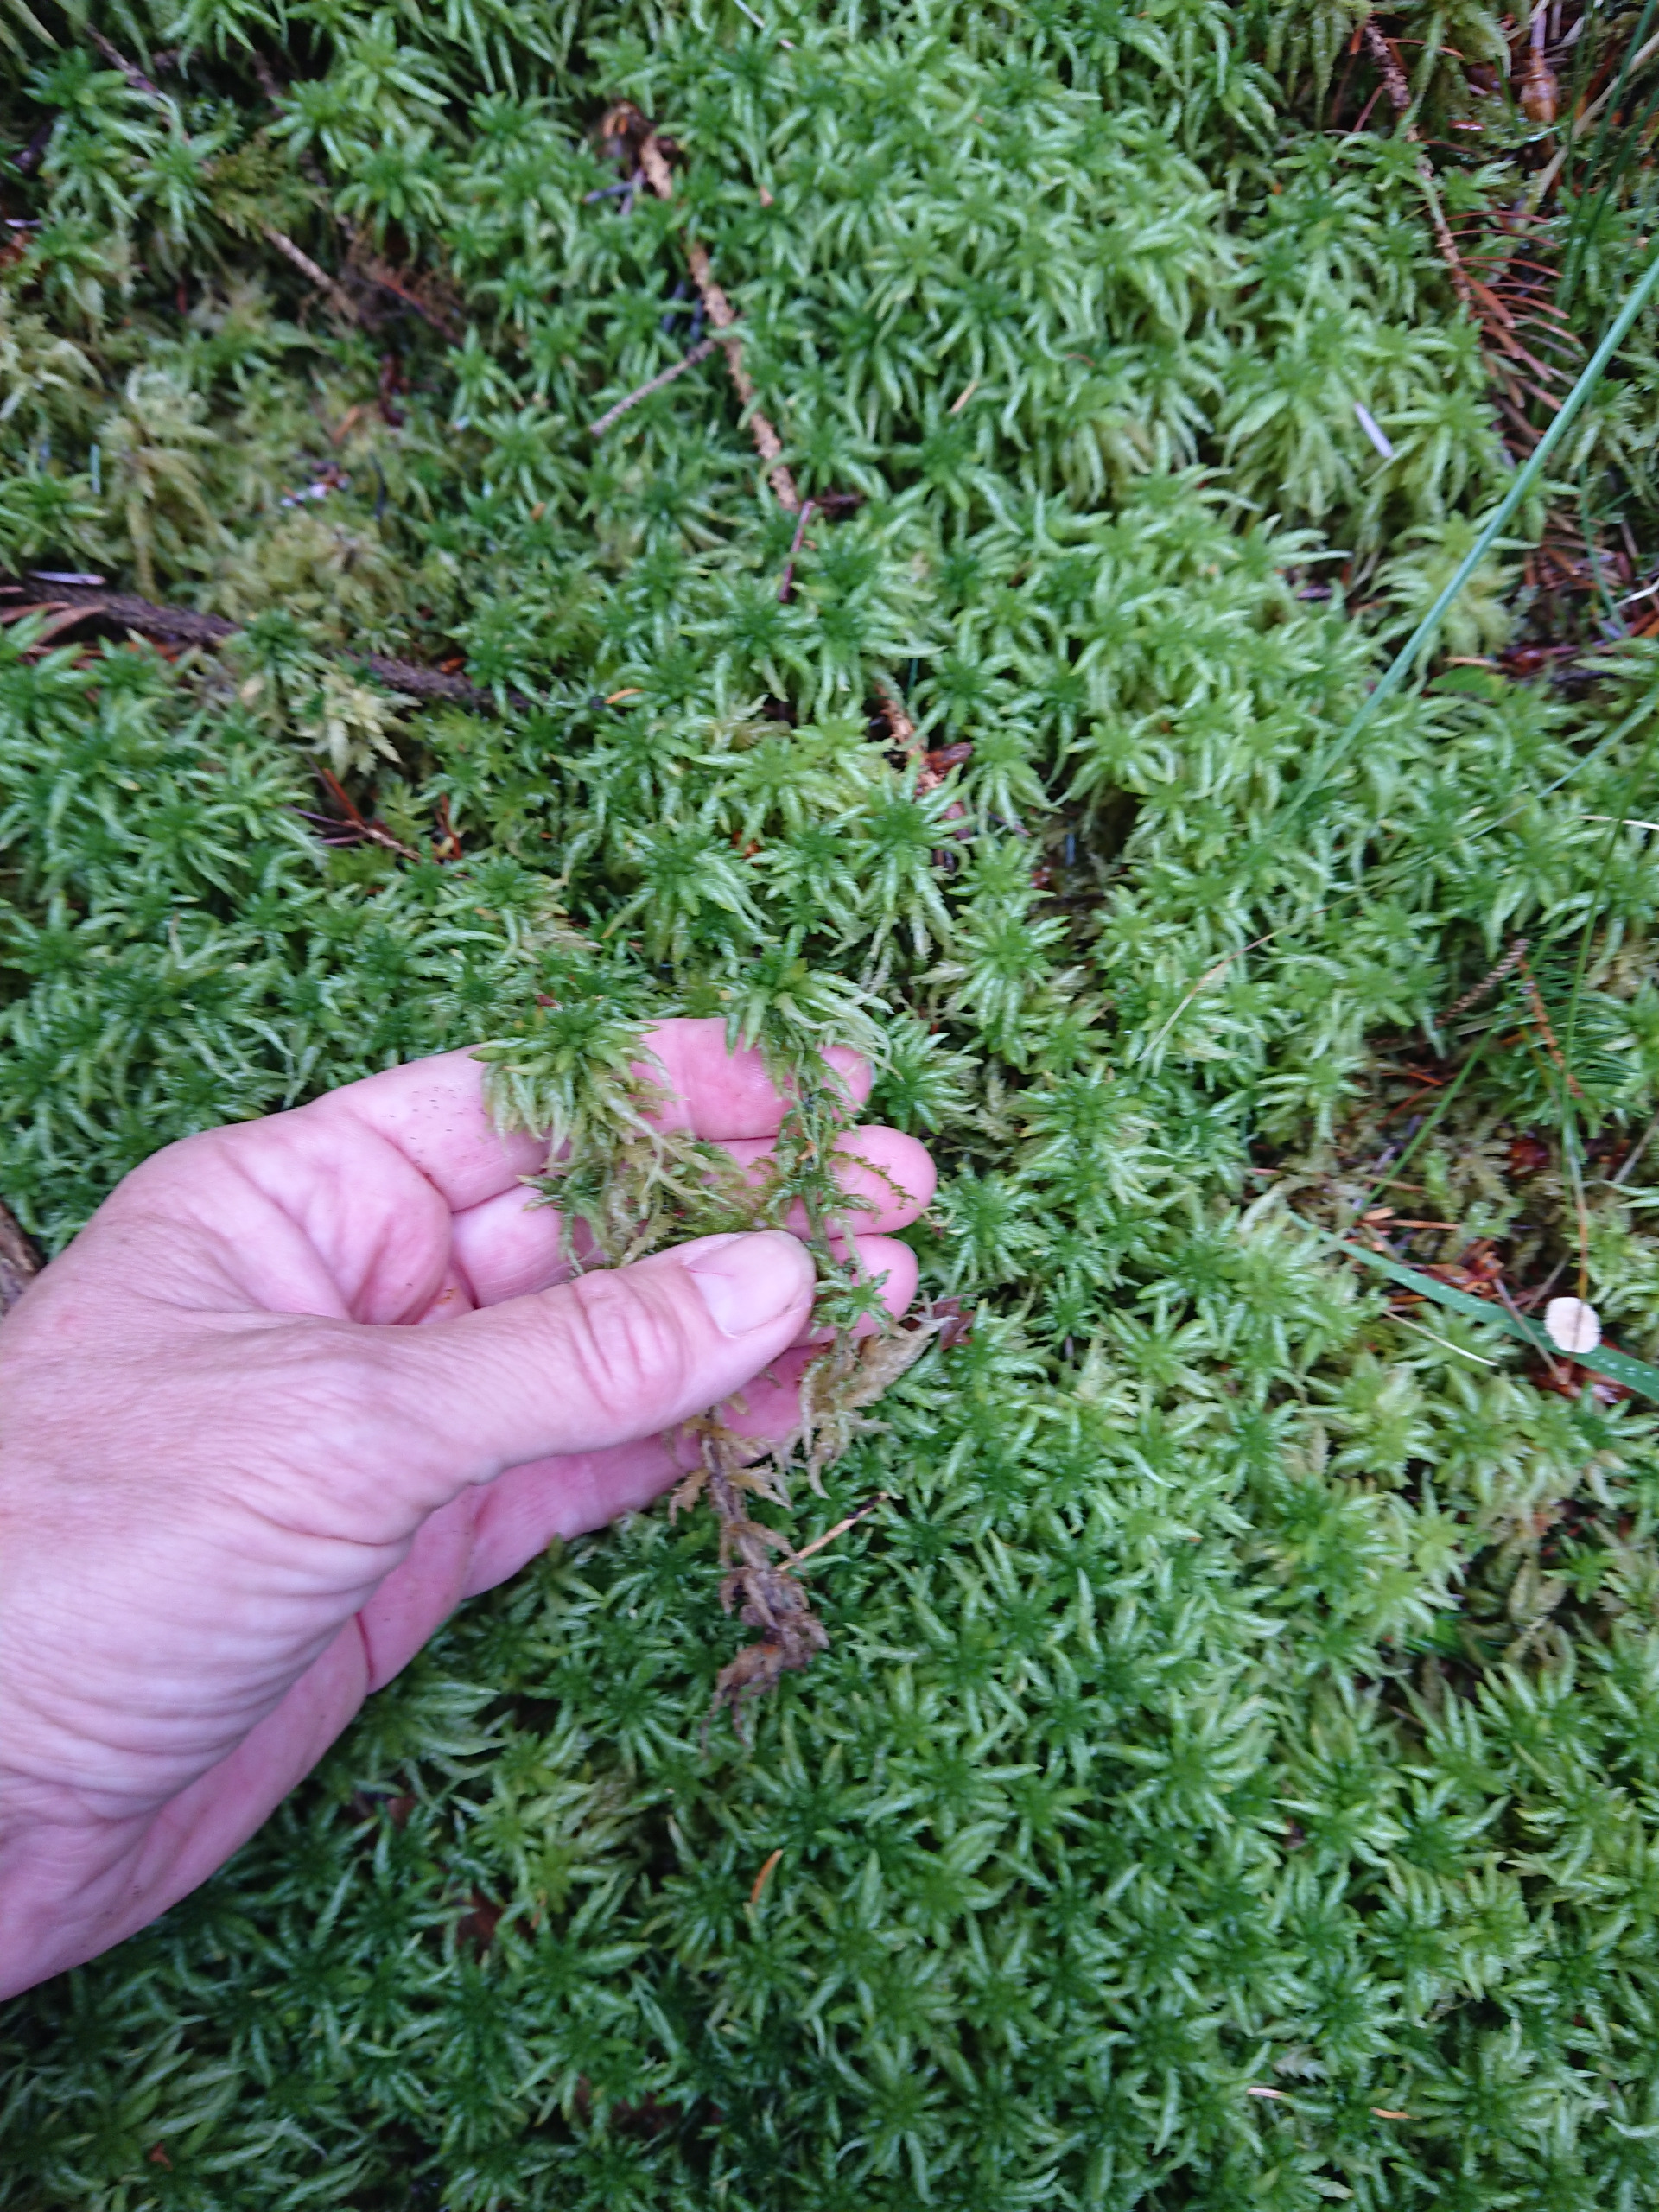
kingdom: Plantae
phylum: Bryophyta
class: Sphagnopsida
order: Sphagnales
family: Sphagnaceae
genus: Sphagnum
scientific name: Sphagnum palustre
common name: Almindelig tørvemos
